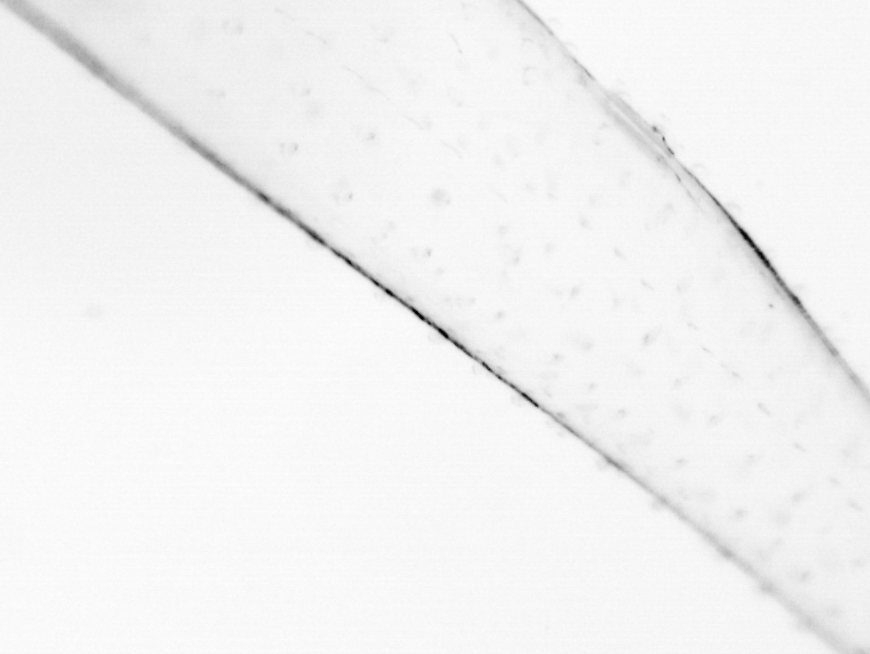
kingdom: Animalia
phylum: Chaetognatha
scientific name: Chaetognatha
